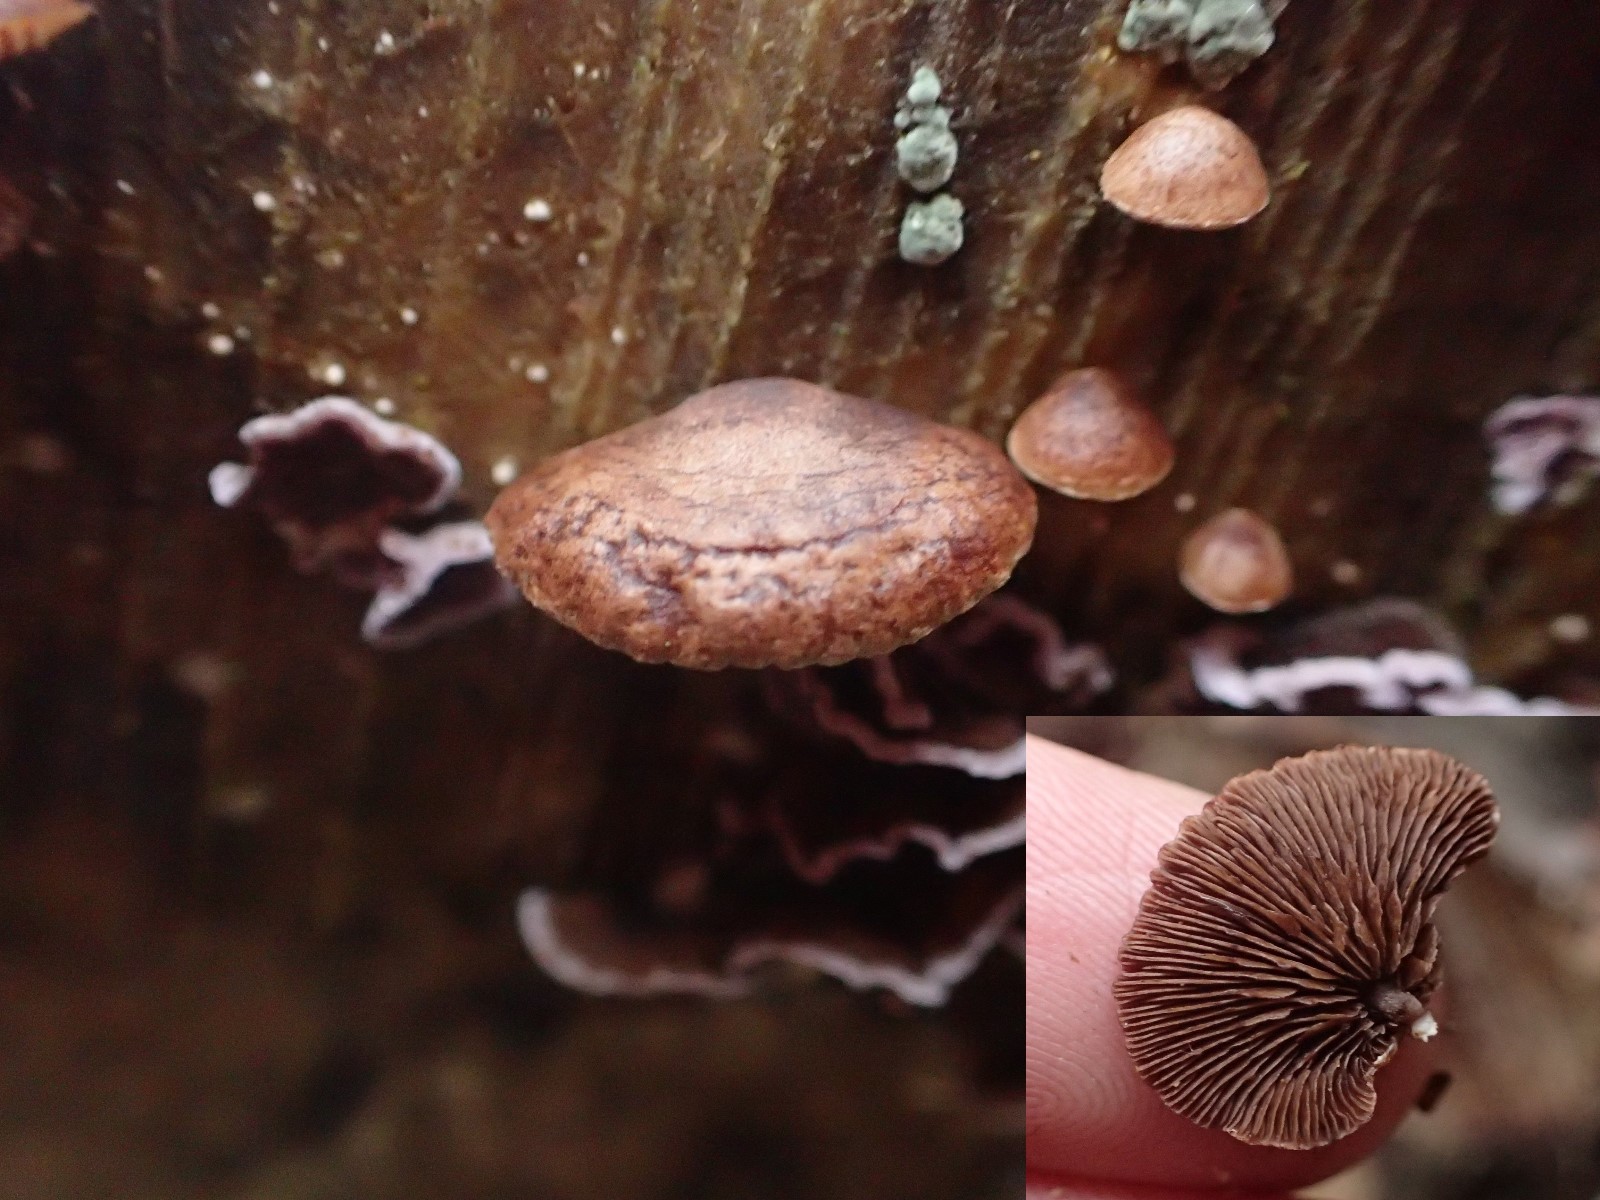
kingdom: Fungi
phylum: Basidiomycota
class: Agaricomycetes
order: Agaricales
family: Strophariaceae
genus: Deconica
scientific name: Deconica horizontalis
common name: ved-stråhat
